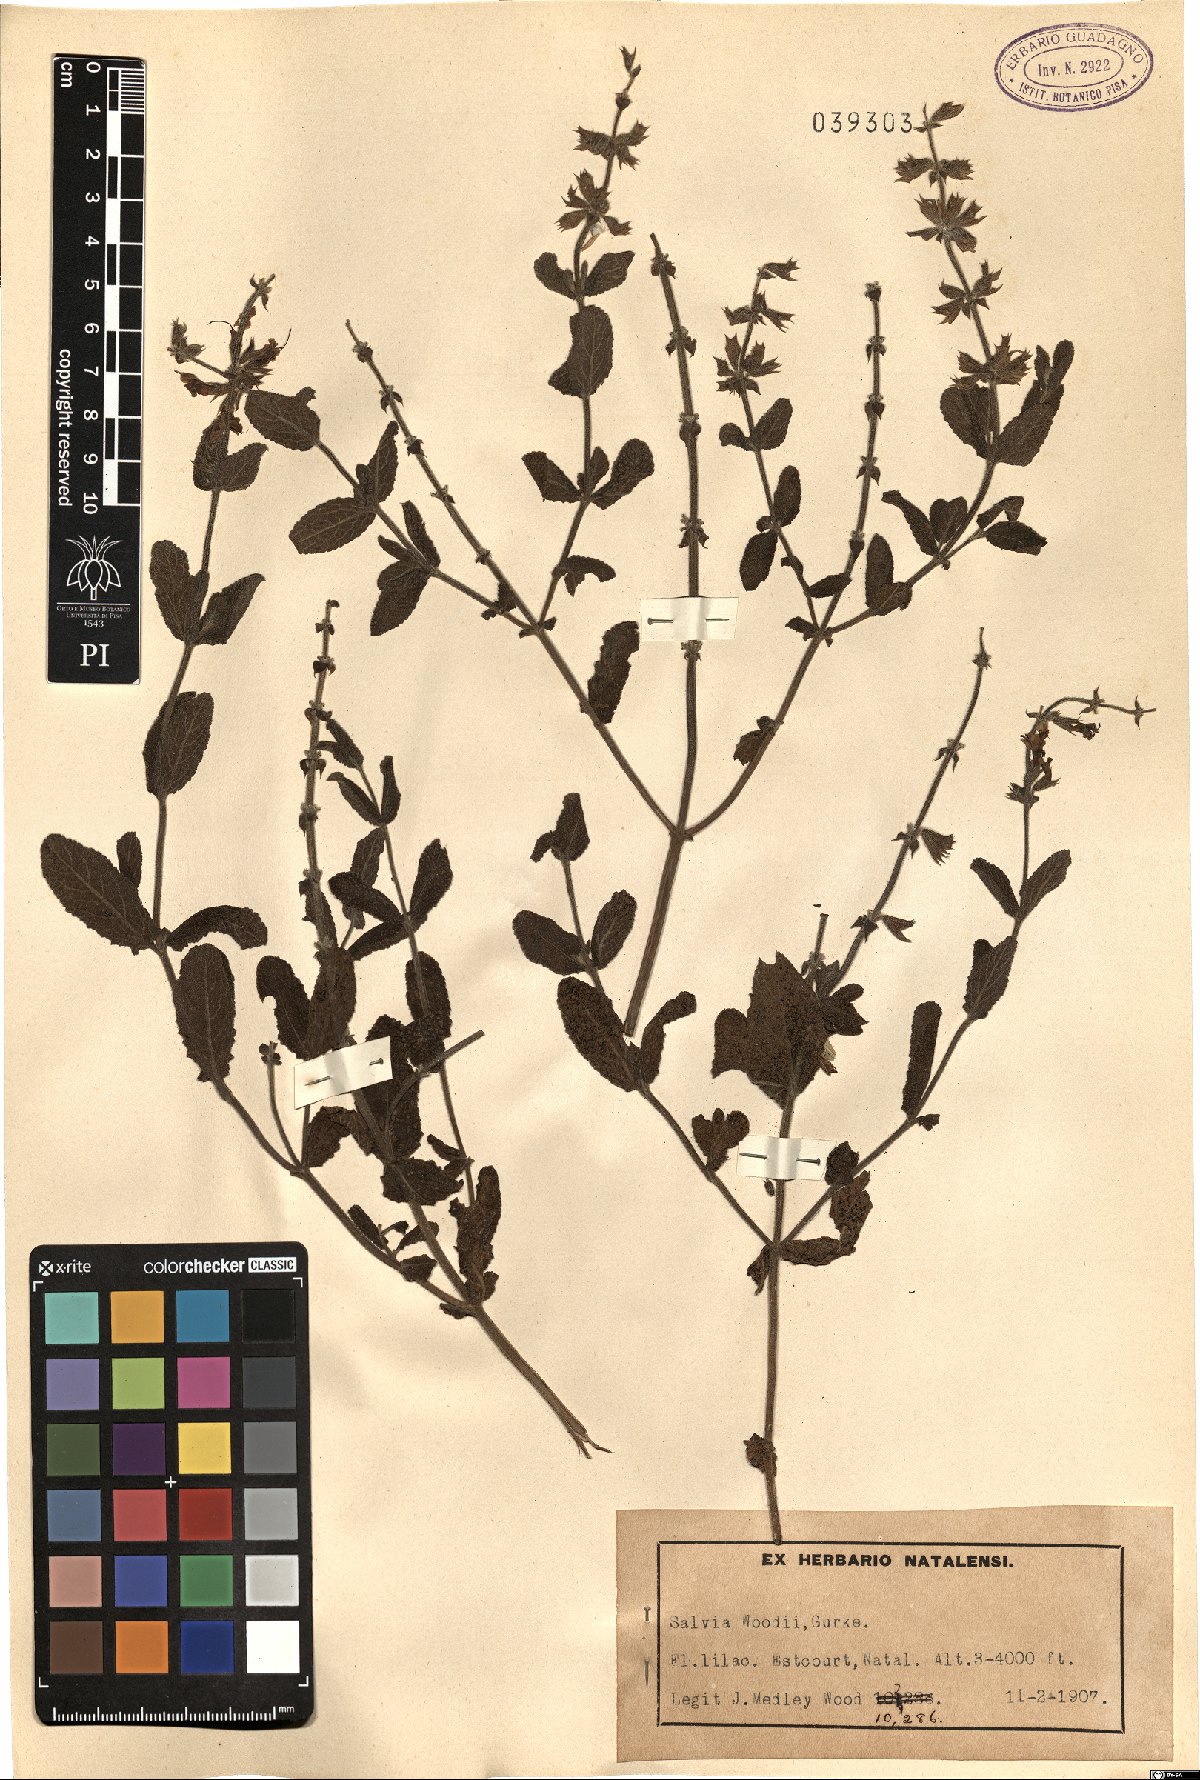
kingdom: Plantae
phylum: Tracheophyta
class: Magnoliopsida
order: Lamiales
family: Lamiaceae
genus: Salvia
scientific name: Salvia repens
